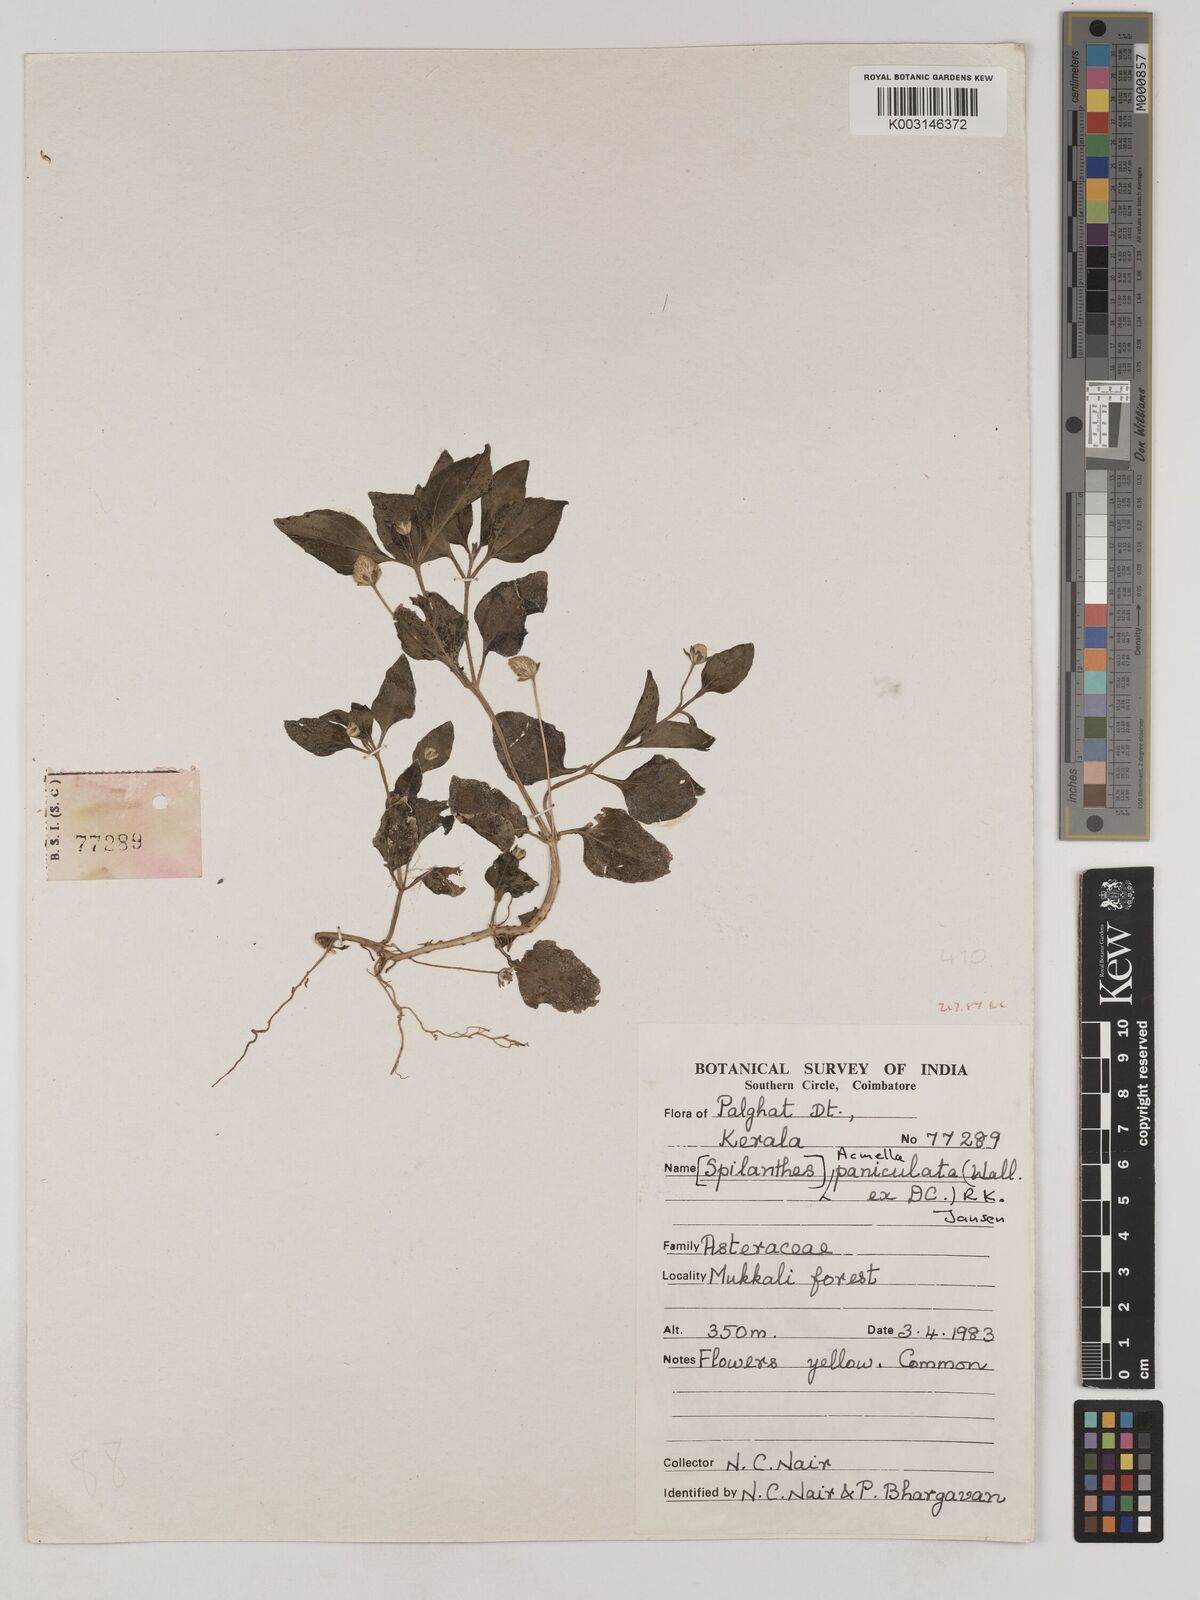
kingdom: Plantae
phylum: Tracheophyta
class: Magnoliopsida
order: Asterales
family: Asteraceae
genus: Acmella
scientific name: Acmella paniculata
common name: Panicled spot flower
